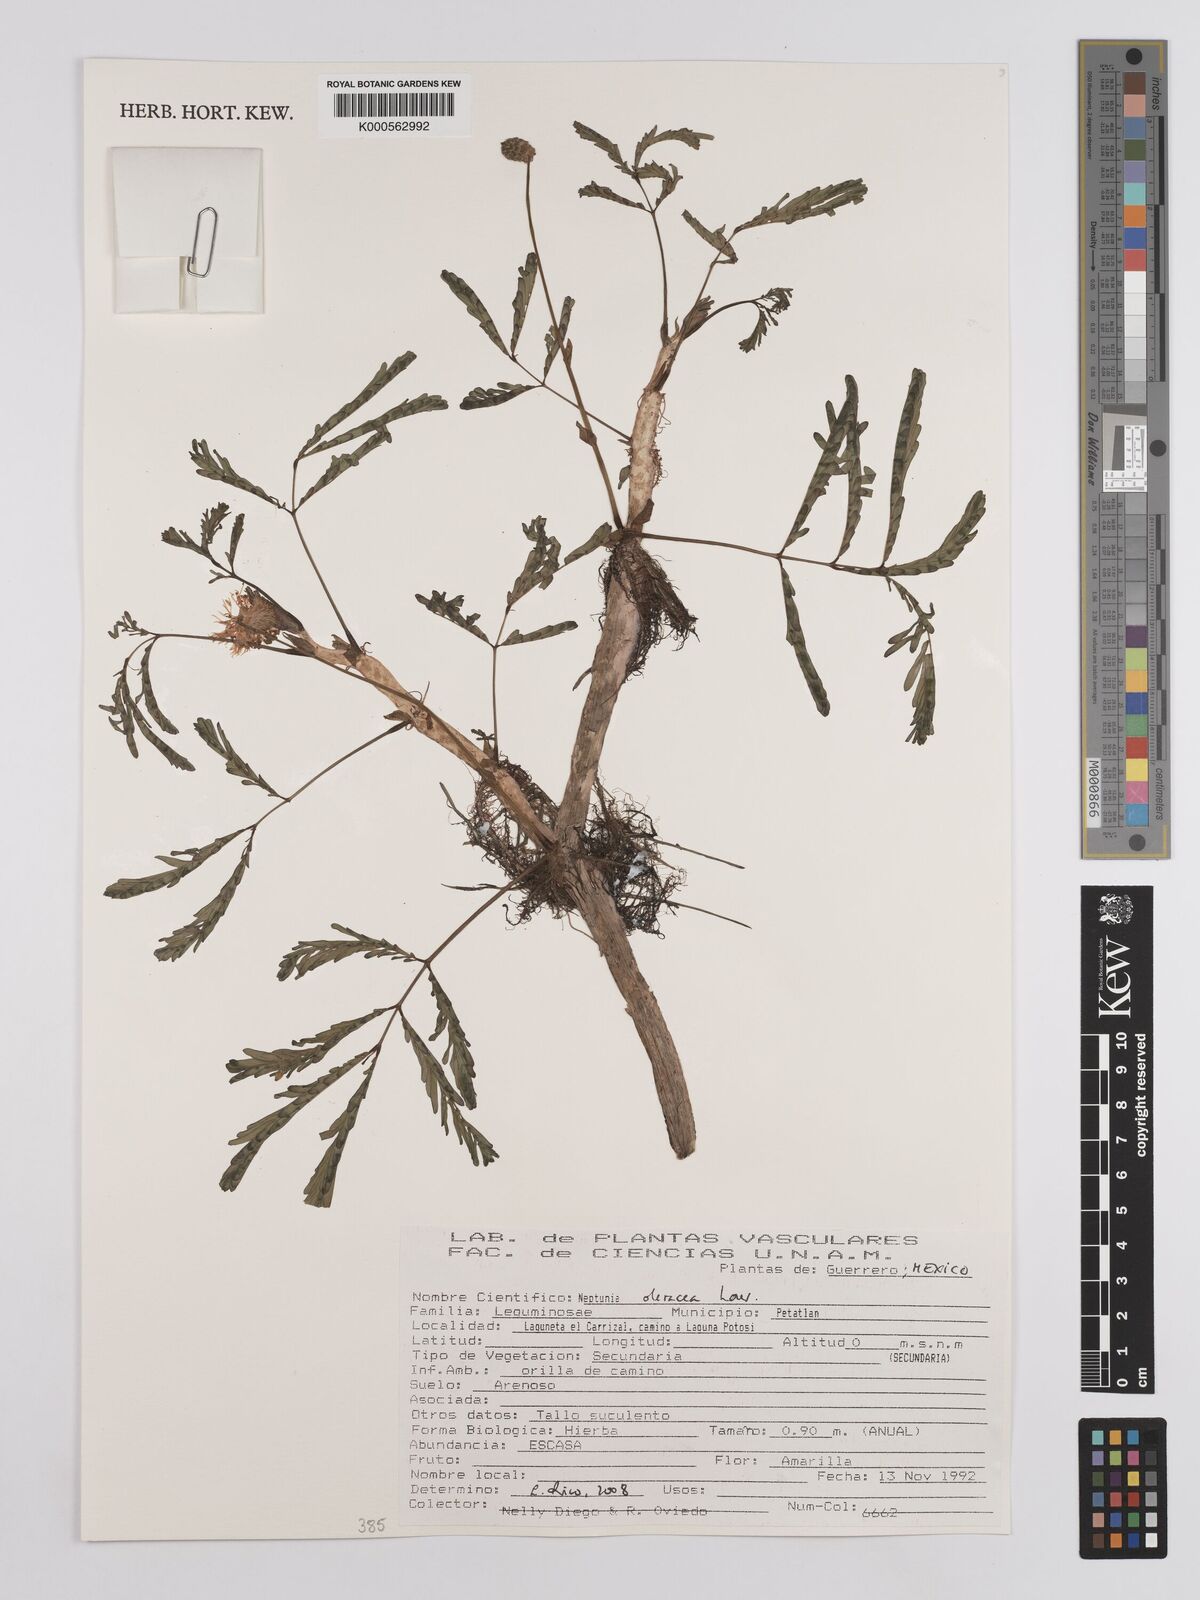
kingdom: Plantae
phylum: Tracheophyta
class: Magnoliopsida
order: Fabales
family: Fabaceae
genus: Neptunia
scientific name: Neptunia prostrata
